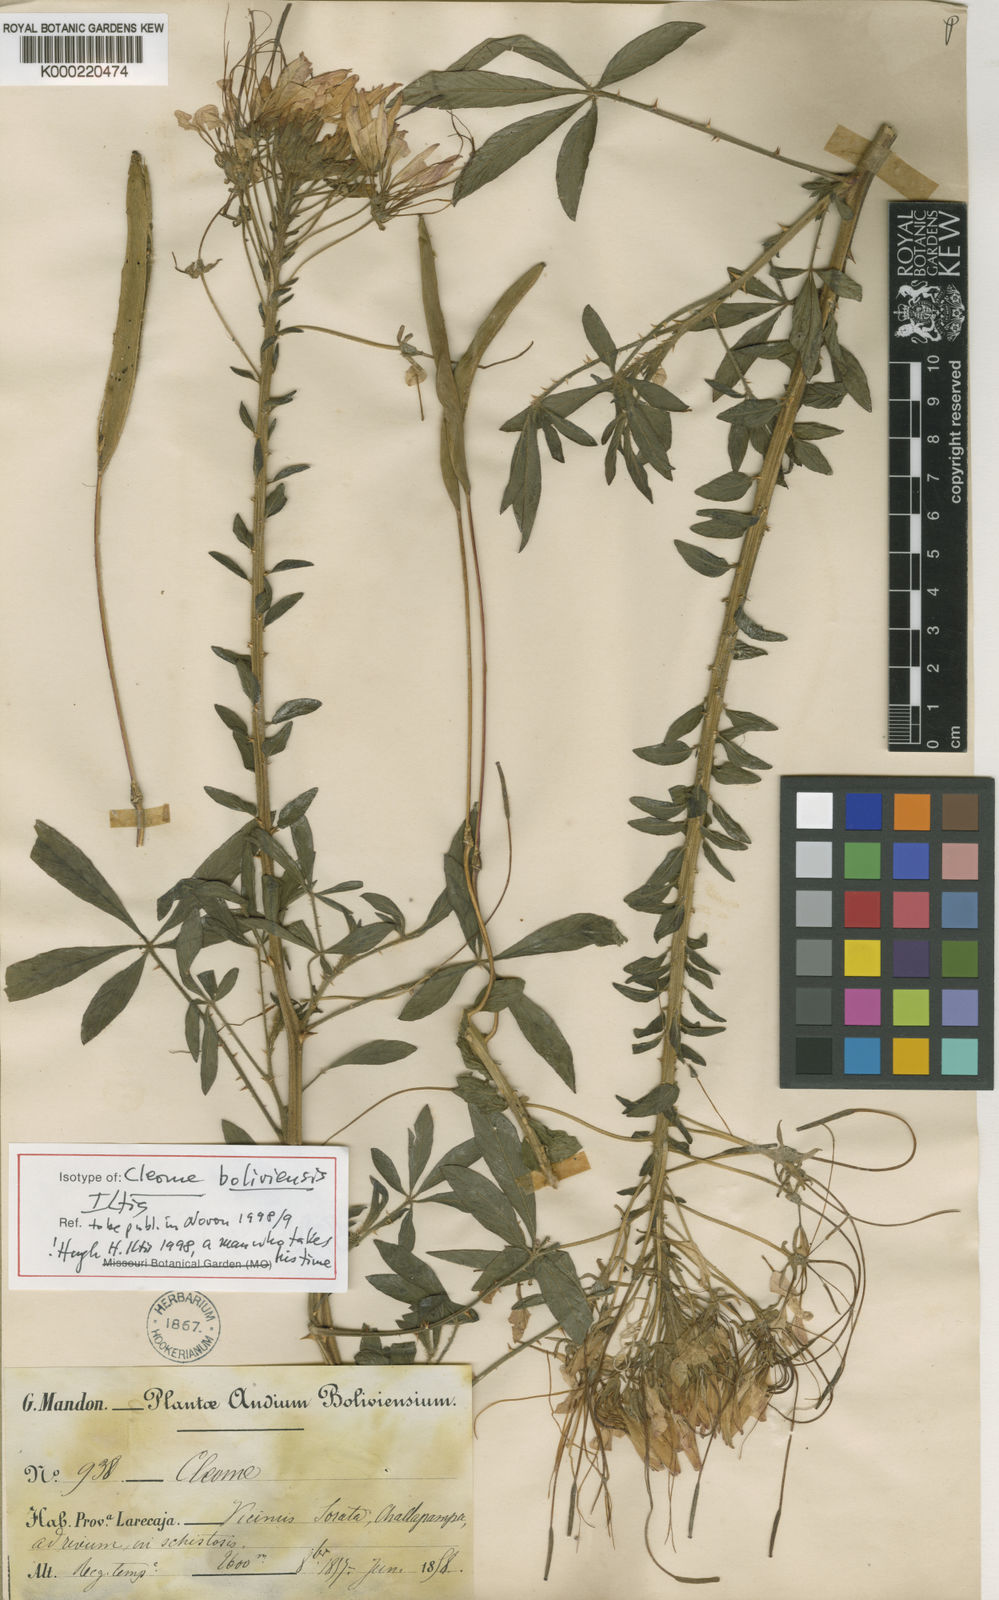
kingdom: Plantae
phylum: Tracheophyta
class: Magnoliopsida
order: Brassicales
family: Cleomaceae
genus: Tarenaya
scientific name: Tarenaya boliviensis
